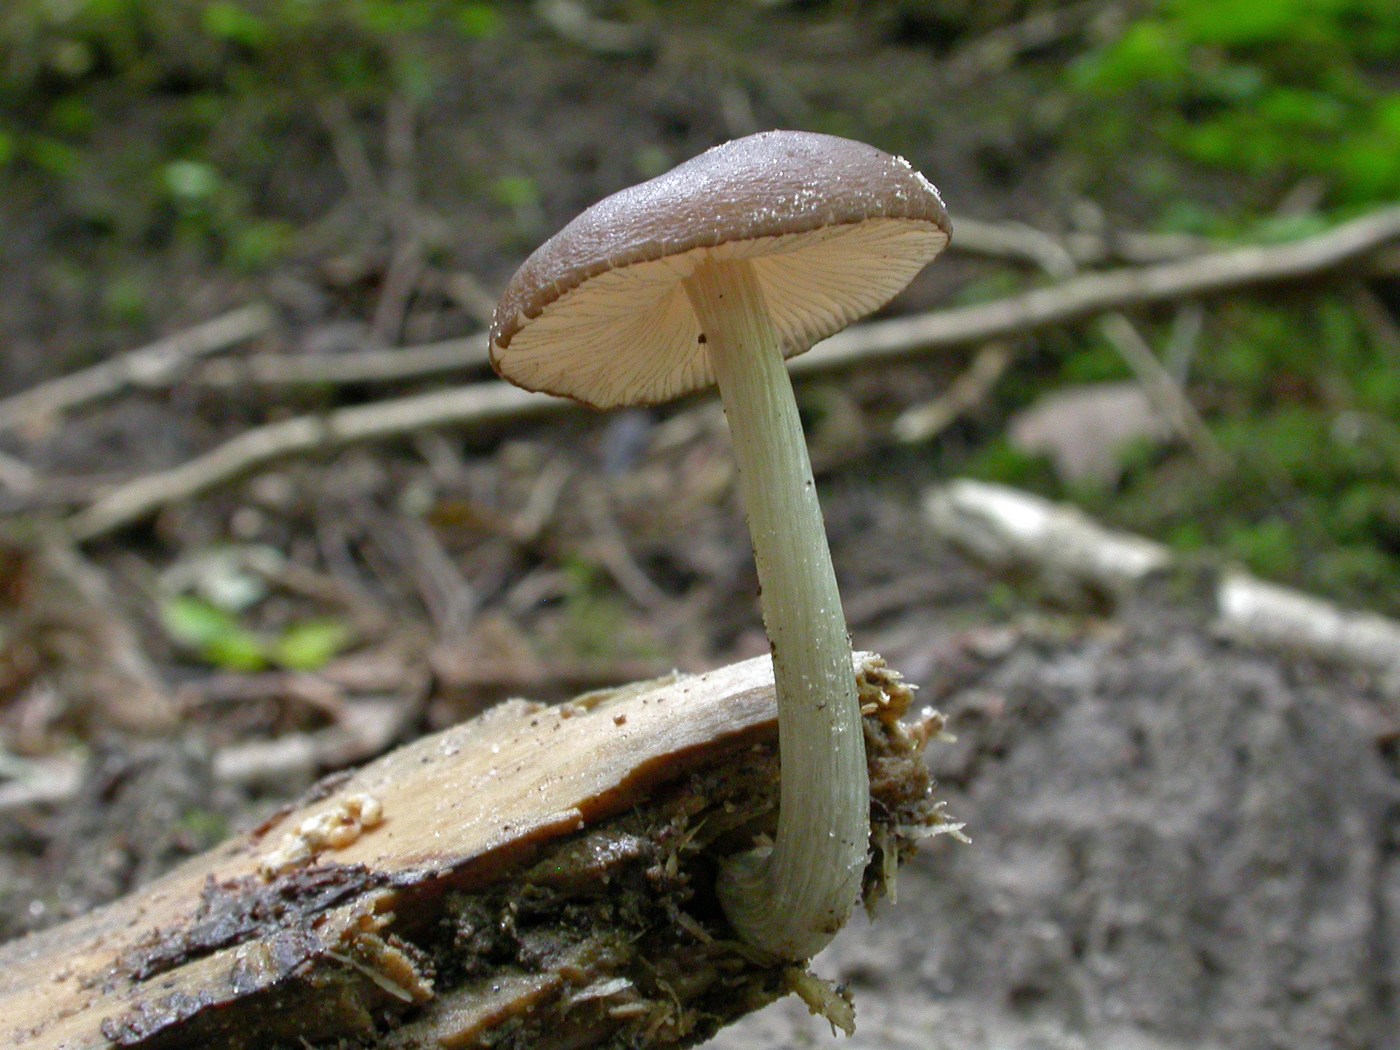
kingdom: Fungi
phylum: Basidiomycota
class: Agaricomycetes
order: Agaricales
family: Pluteaceae
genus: Pluteus
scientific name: Pluteus chrysophaeus
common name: blåfodet skærmhat
